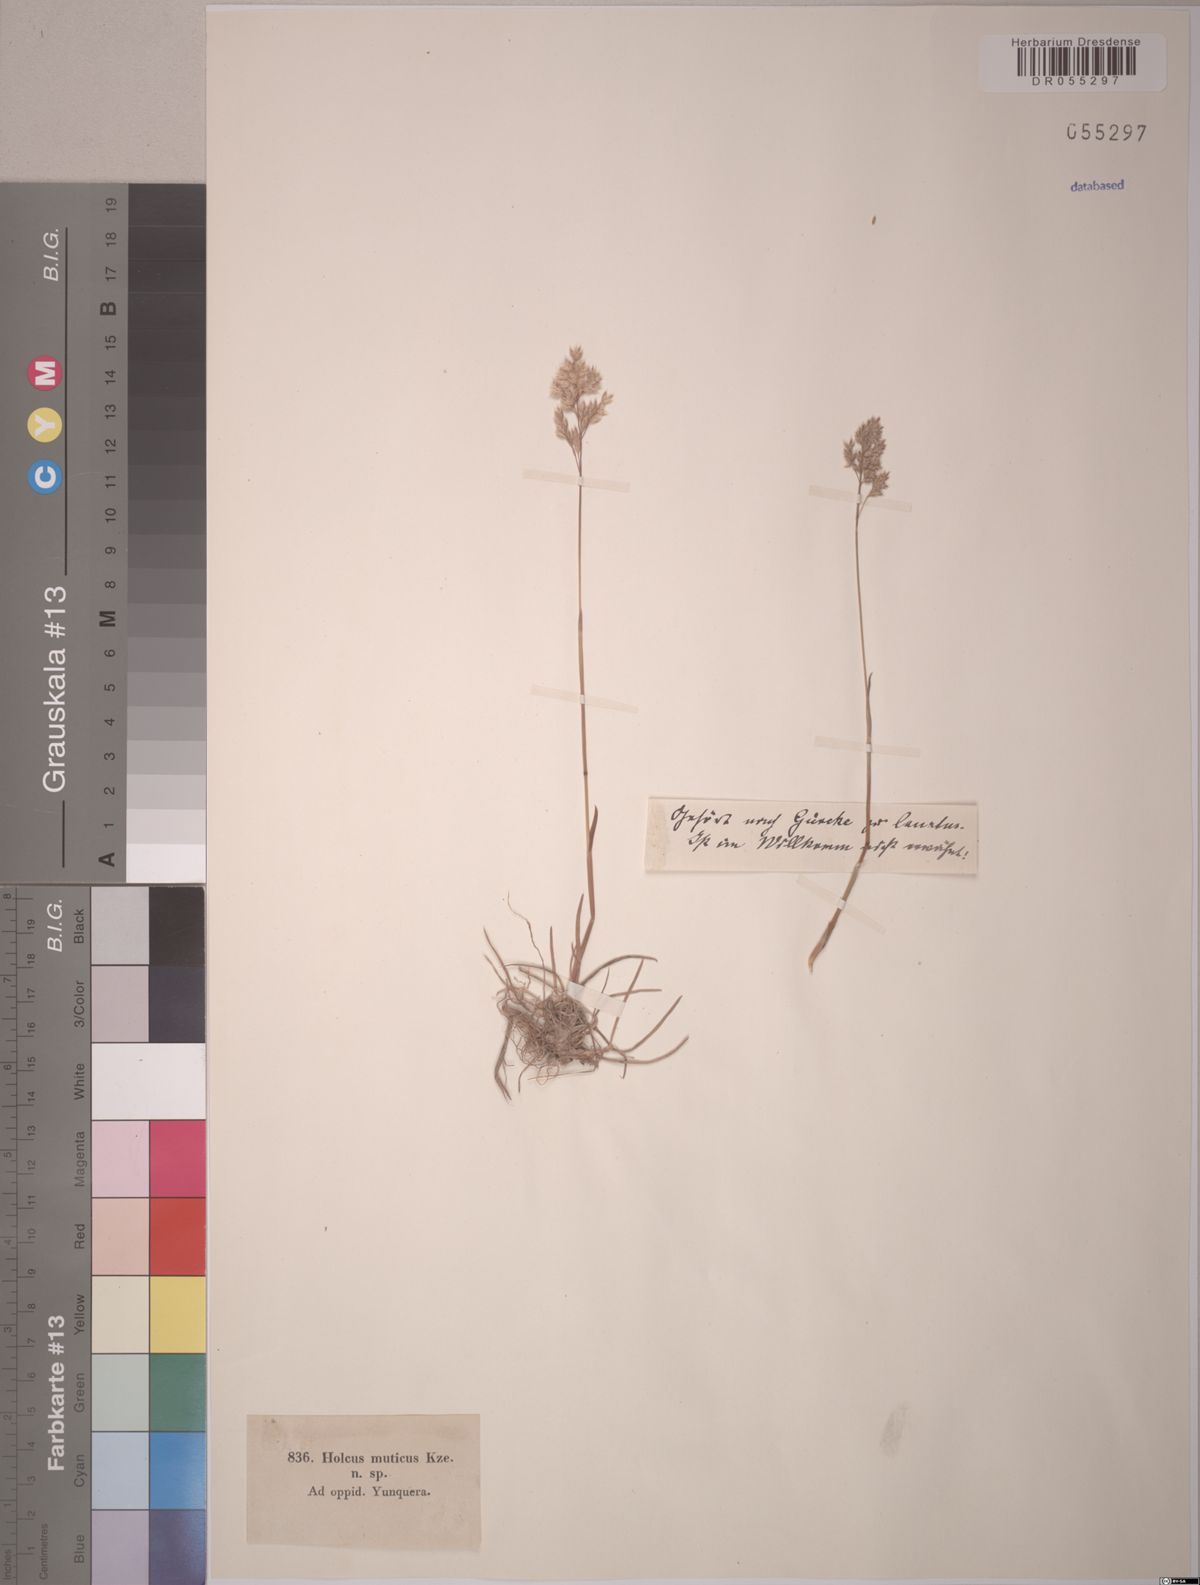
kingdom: Plantae
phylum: Tracheophyta
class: Liliopsida
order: Poales
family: Poaceae
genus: Holcus
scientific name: Holcus lanatus
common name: Yorkshire-fog
